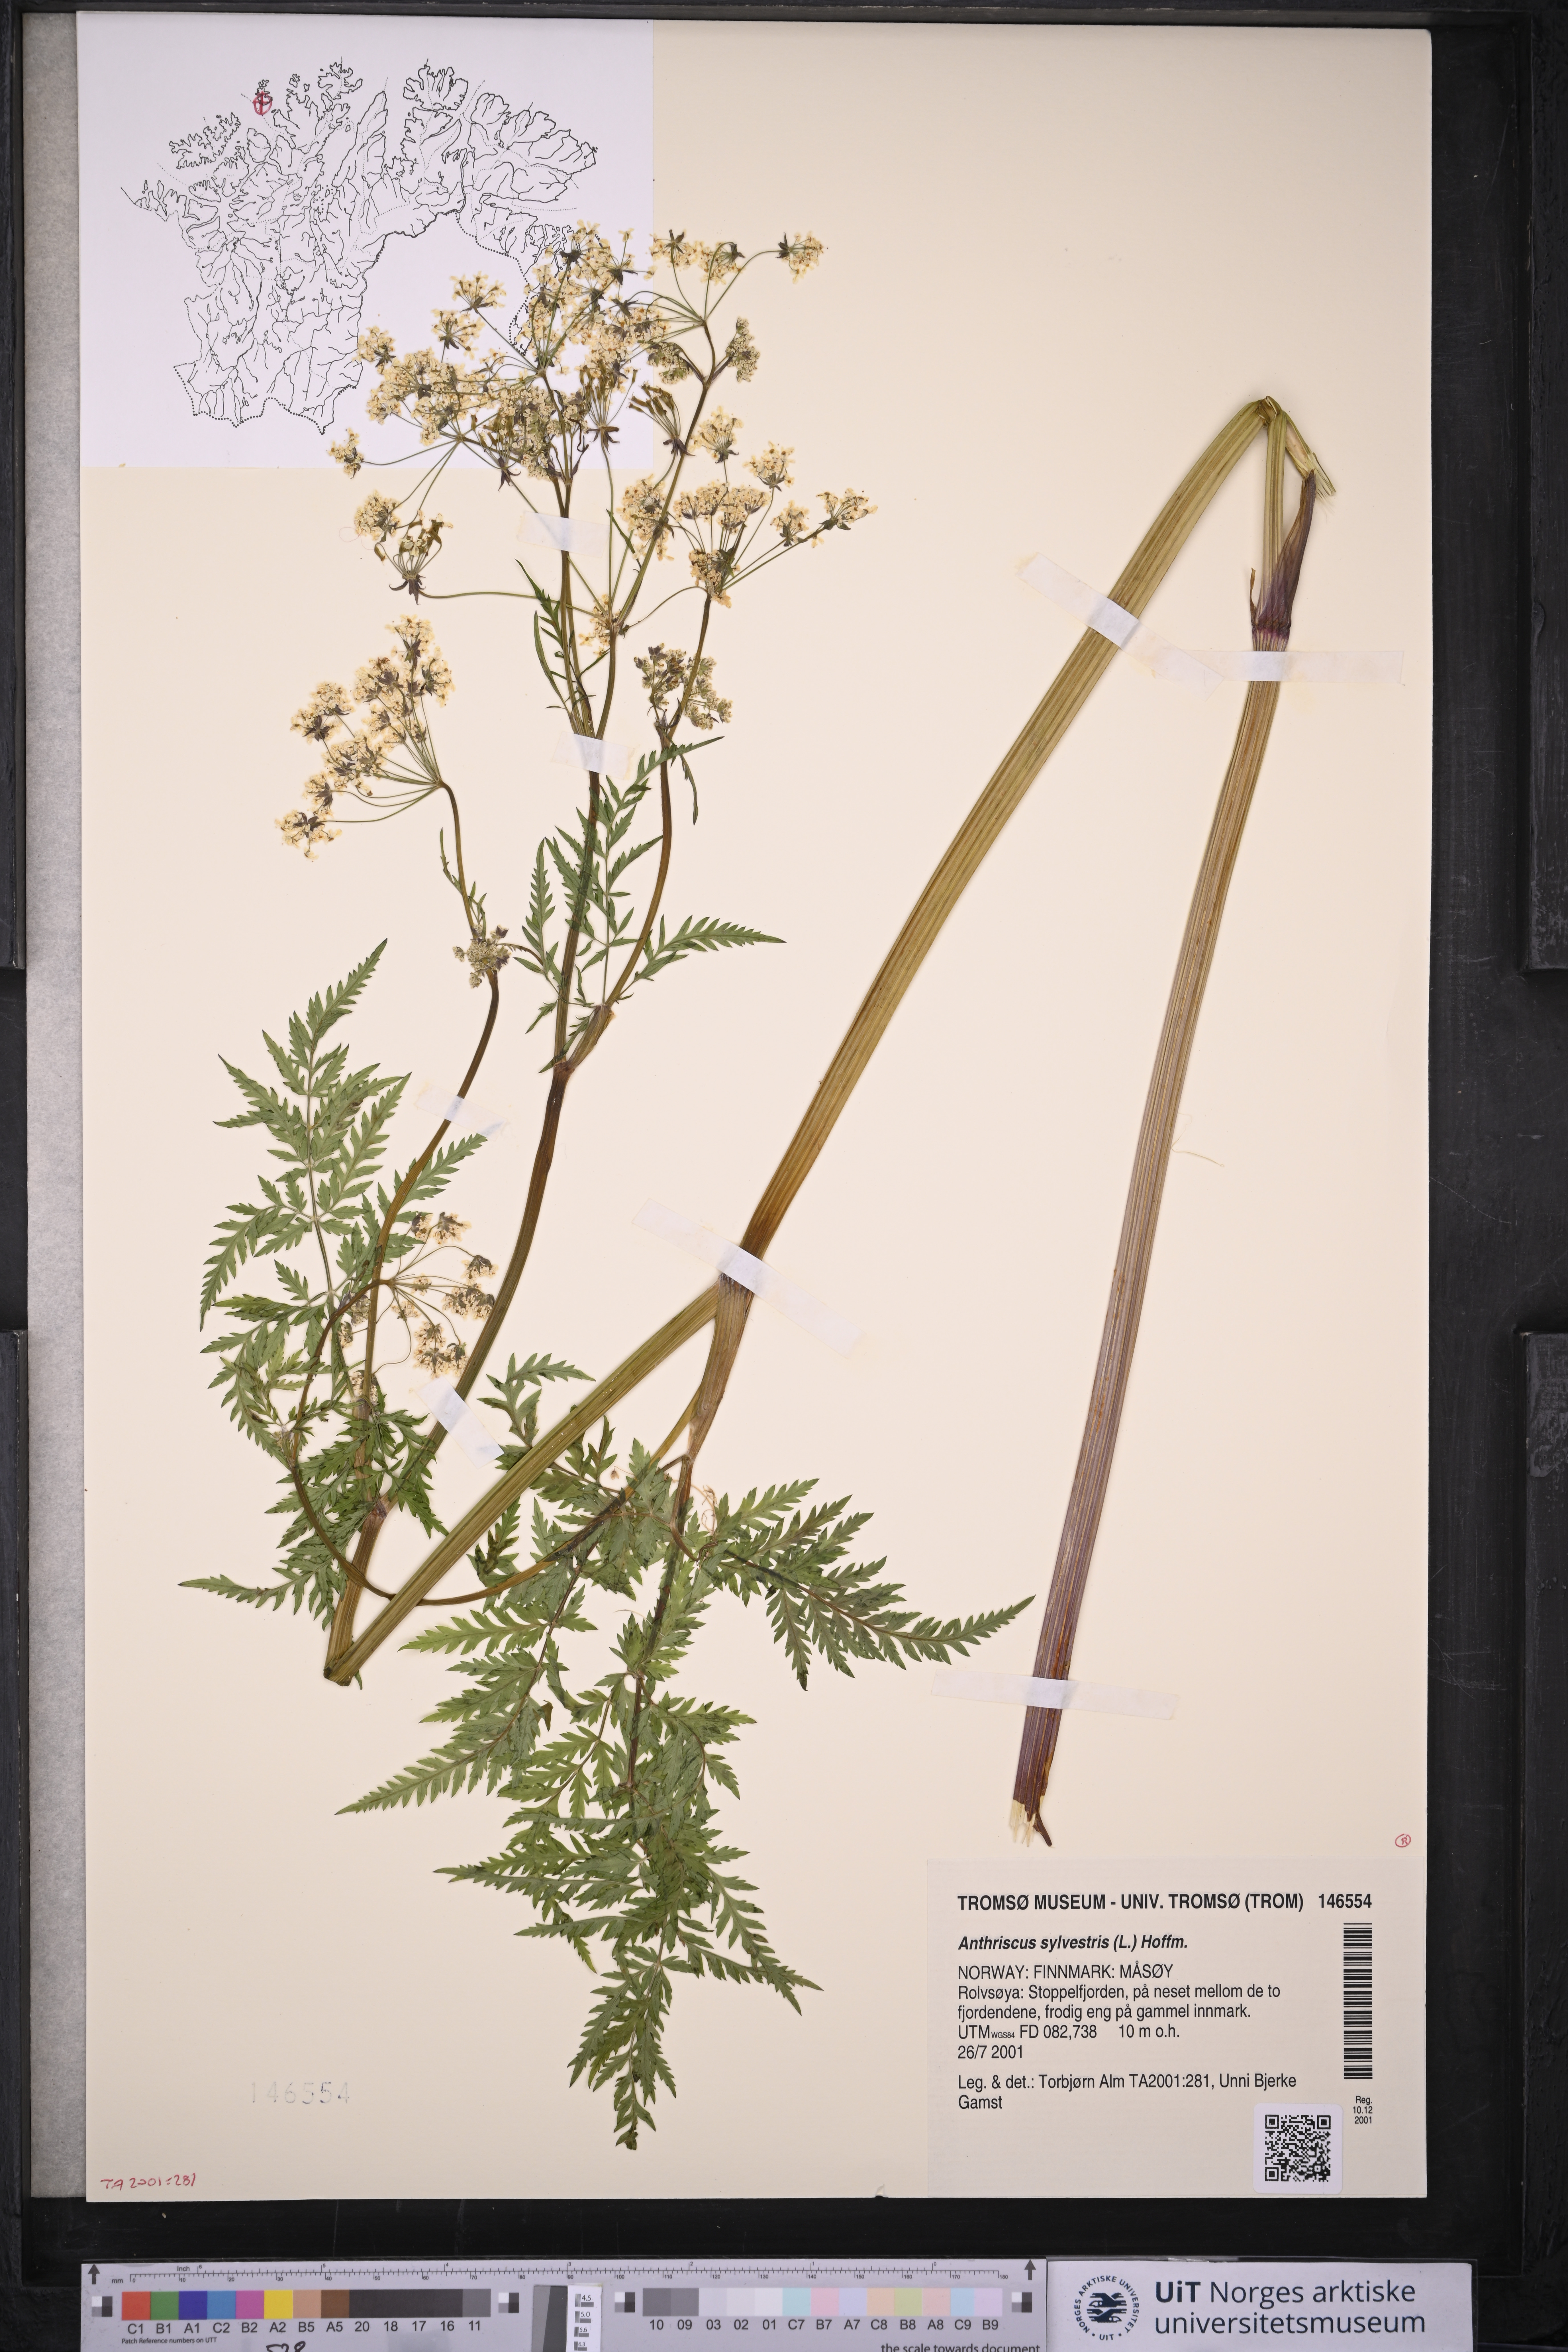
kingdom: Plantae
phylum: Tracheophyta
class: Magnoliopsida
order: Apiales
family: Apiaceae
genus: Anthriscus
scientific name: Anthriscus sylvestris
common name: Cow parsley
